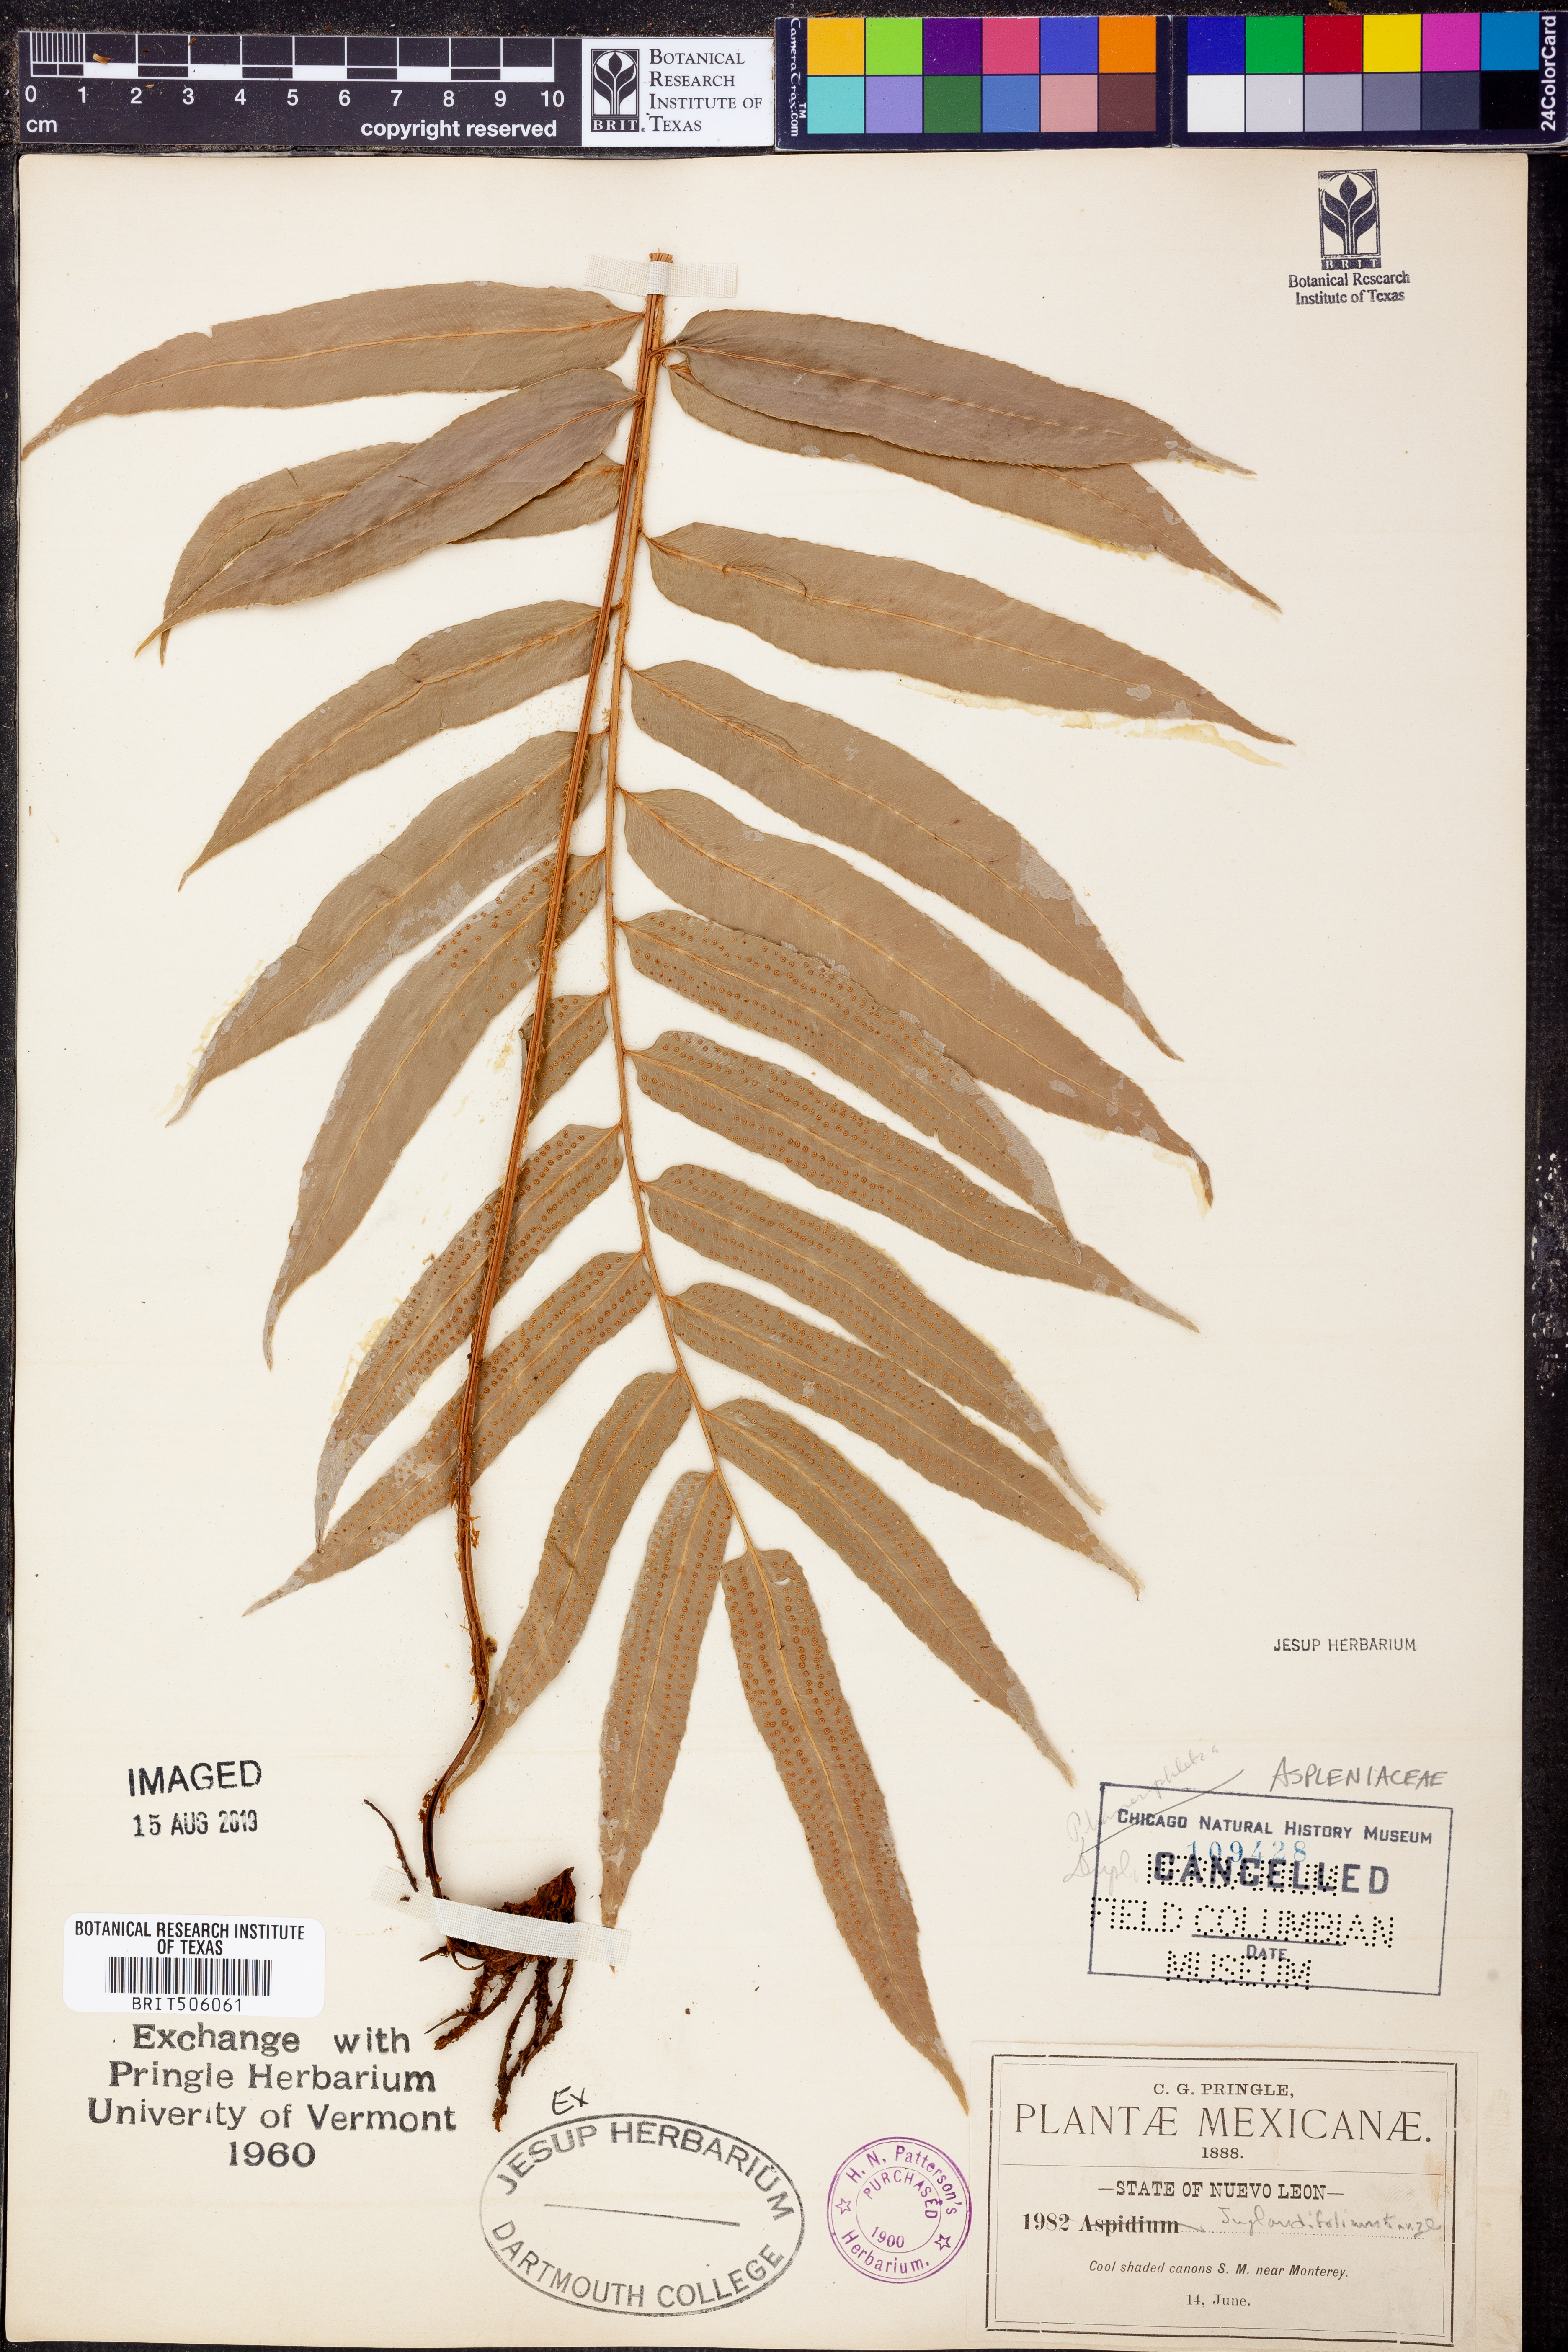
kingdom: Plantae
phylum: Tracheophyta
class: Polypodiopsida
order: Polypodiales
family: Tectariaceae
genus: Polydictyum
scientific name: Polydictyum juglandifolium
